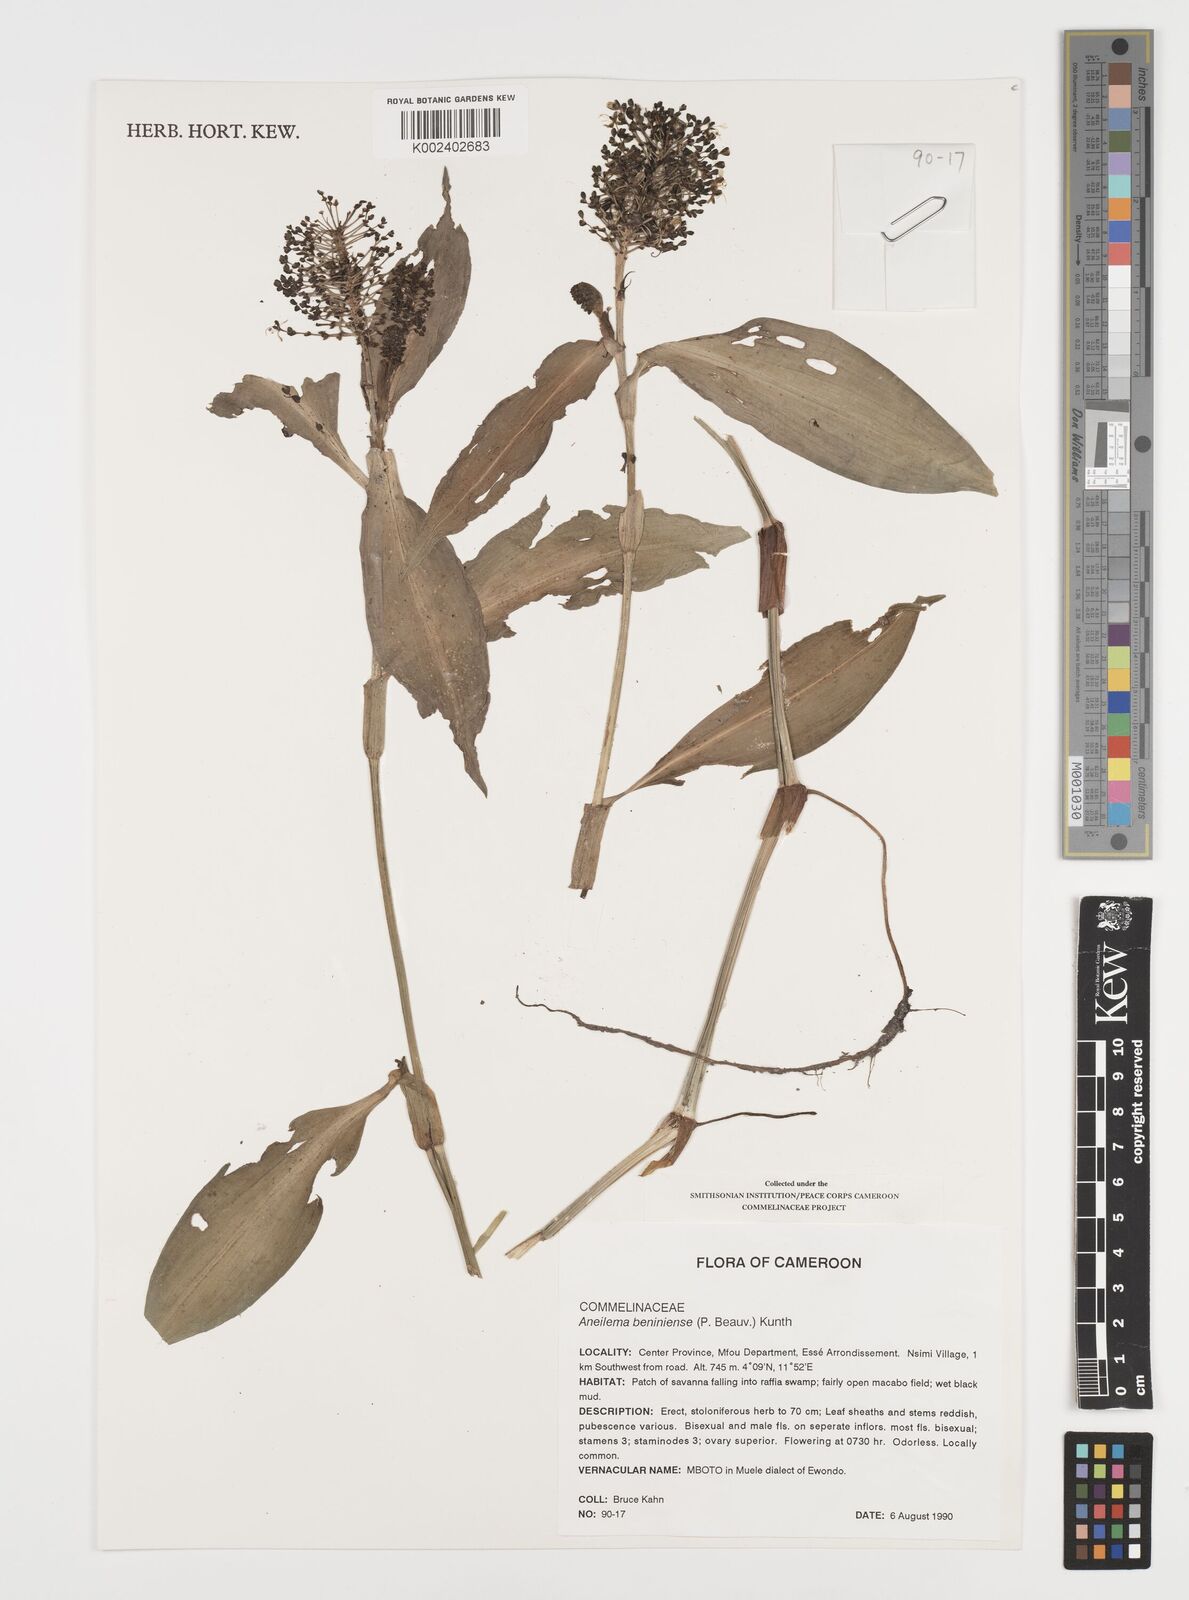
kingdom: Plantae
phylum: Tracheophyta
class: Liliopsida
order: Commelinales
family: Commelinaceae
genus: Aneilema
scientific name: Aneilema beniniense
